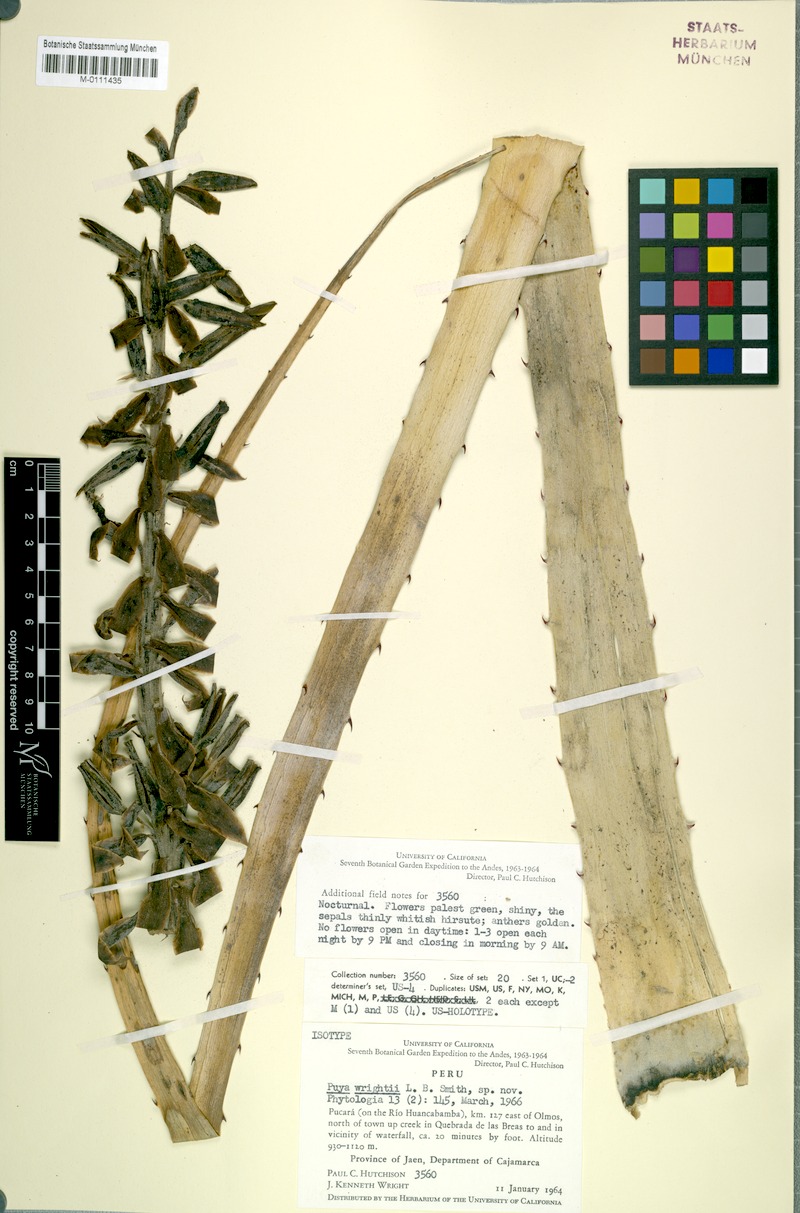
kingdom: Plantae
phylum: Tracheophyta
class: Liliopsida
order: Poales
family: Bromeliaceae
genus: Puya
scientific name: Puya wrightii
